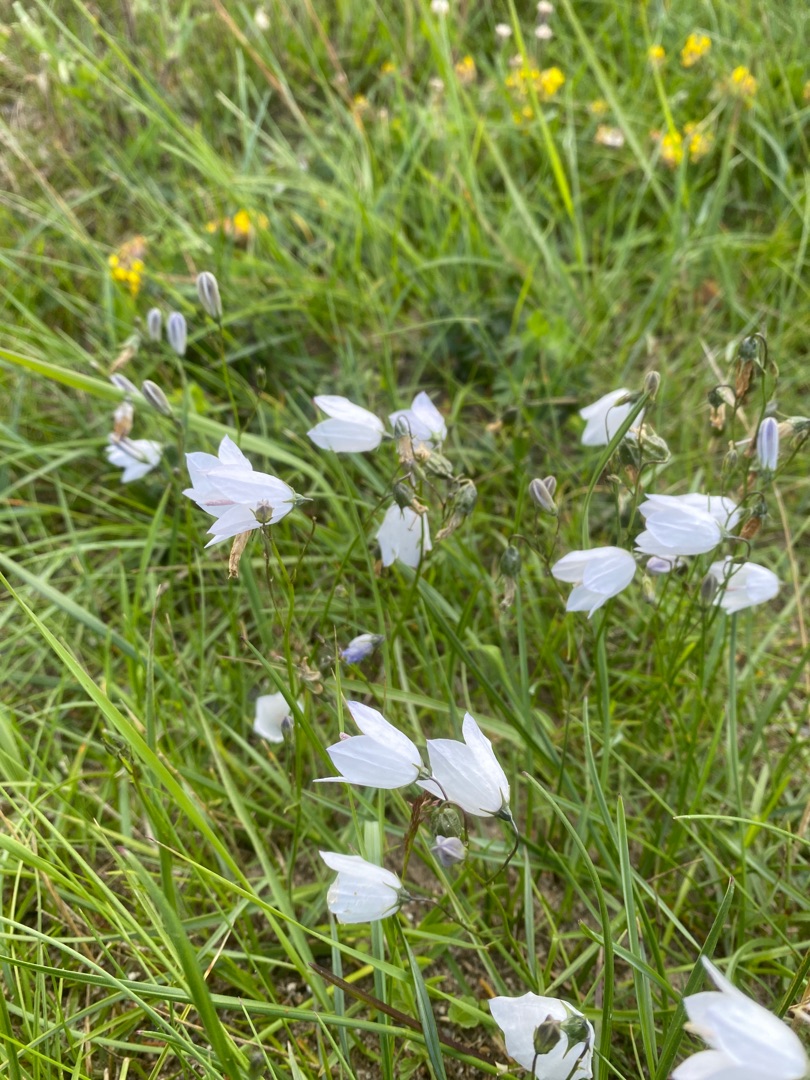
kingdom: Plantae
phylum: Tracheophyta
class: Magnoliopsida
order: Asterales
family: Campanulaceae
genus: Campanula
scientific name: Campanula rotundifolia
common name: Liden klokke
